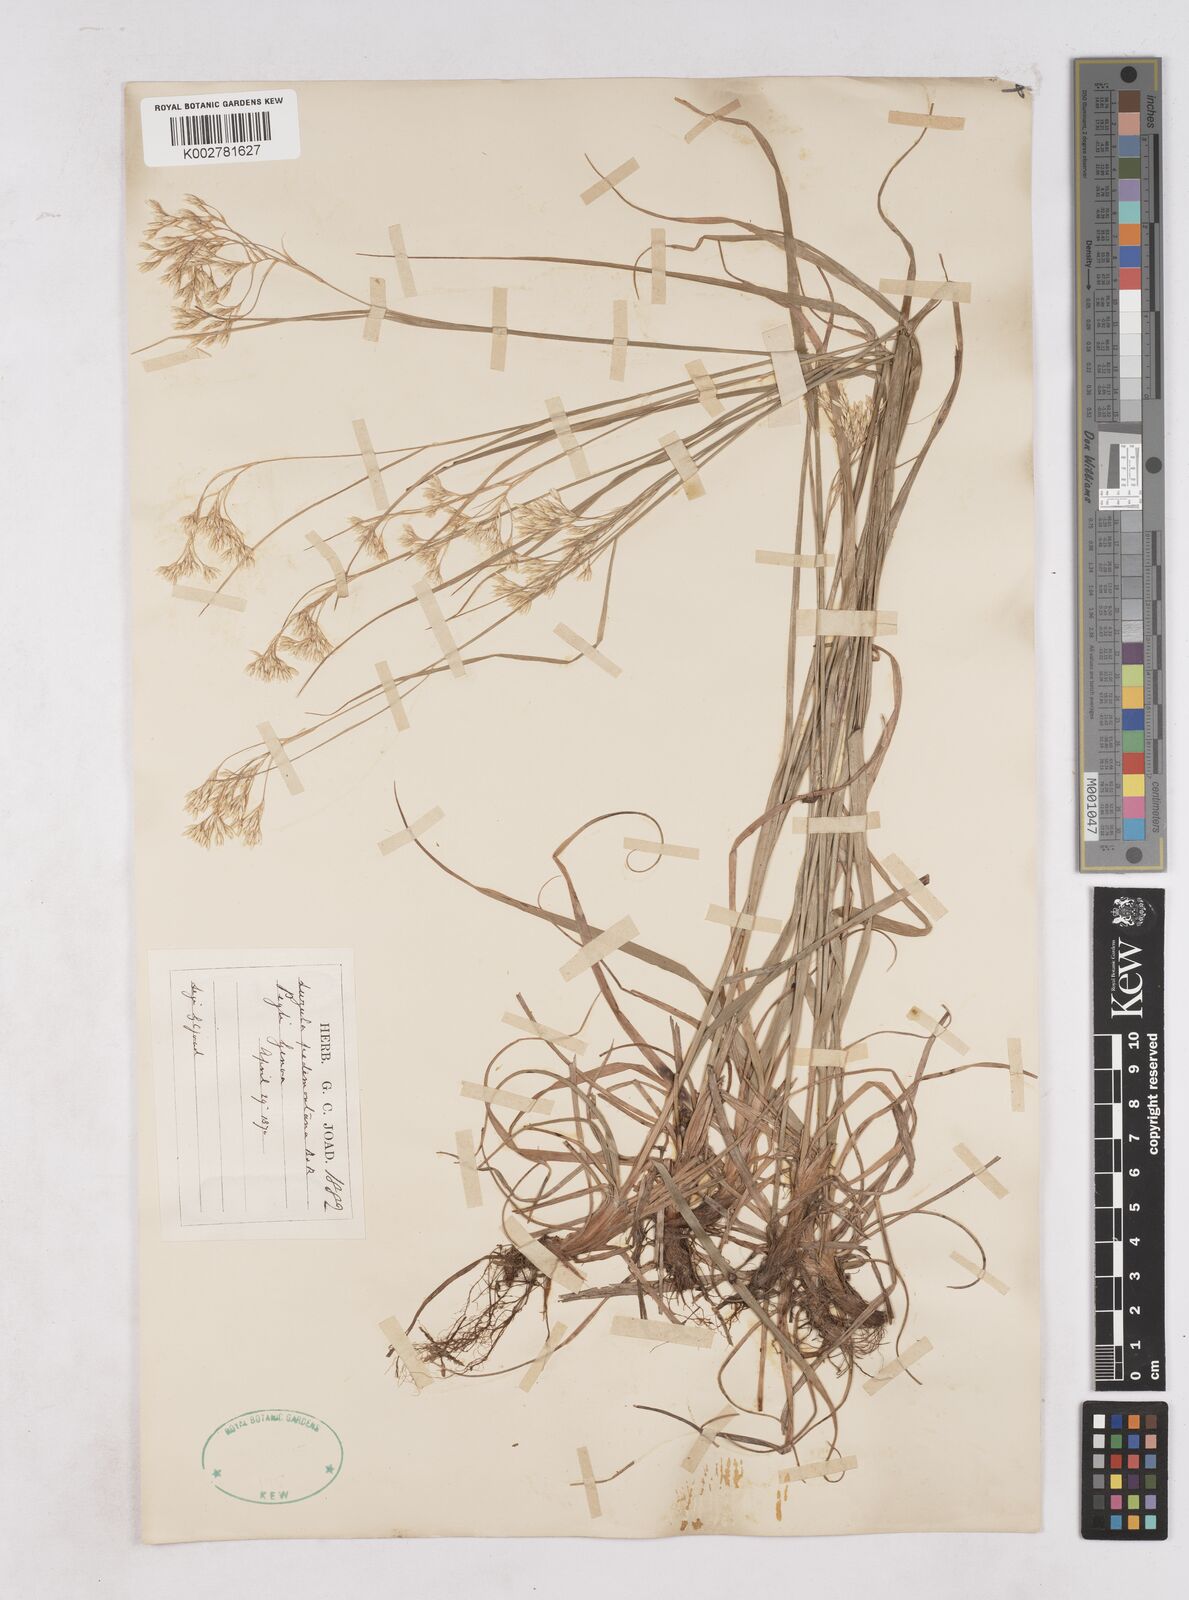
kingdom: Plantae
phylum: Tracheophyta
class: Liliopsida
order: Poales
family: Juncaceae
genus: Luzula
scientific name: Luzula pedemontana
